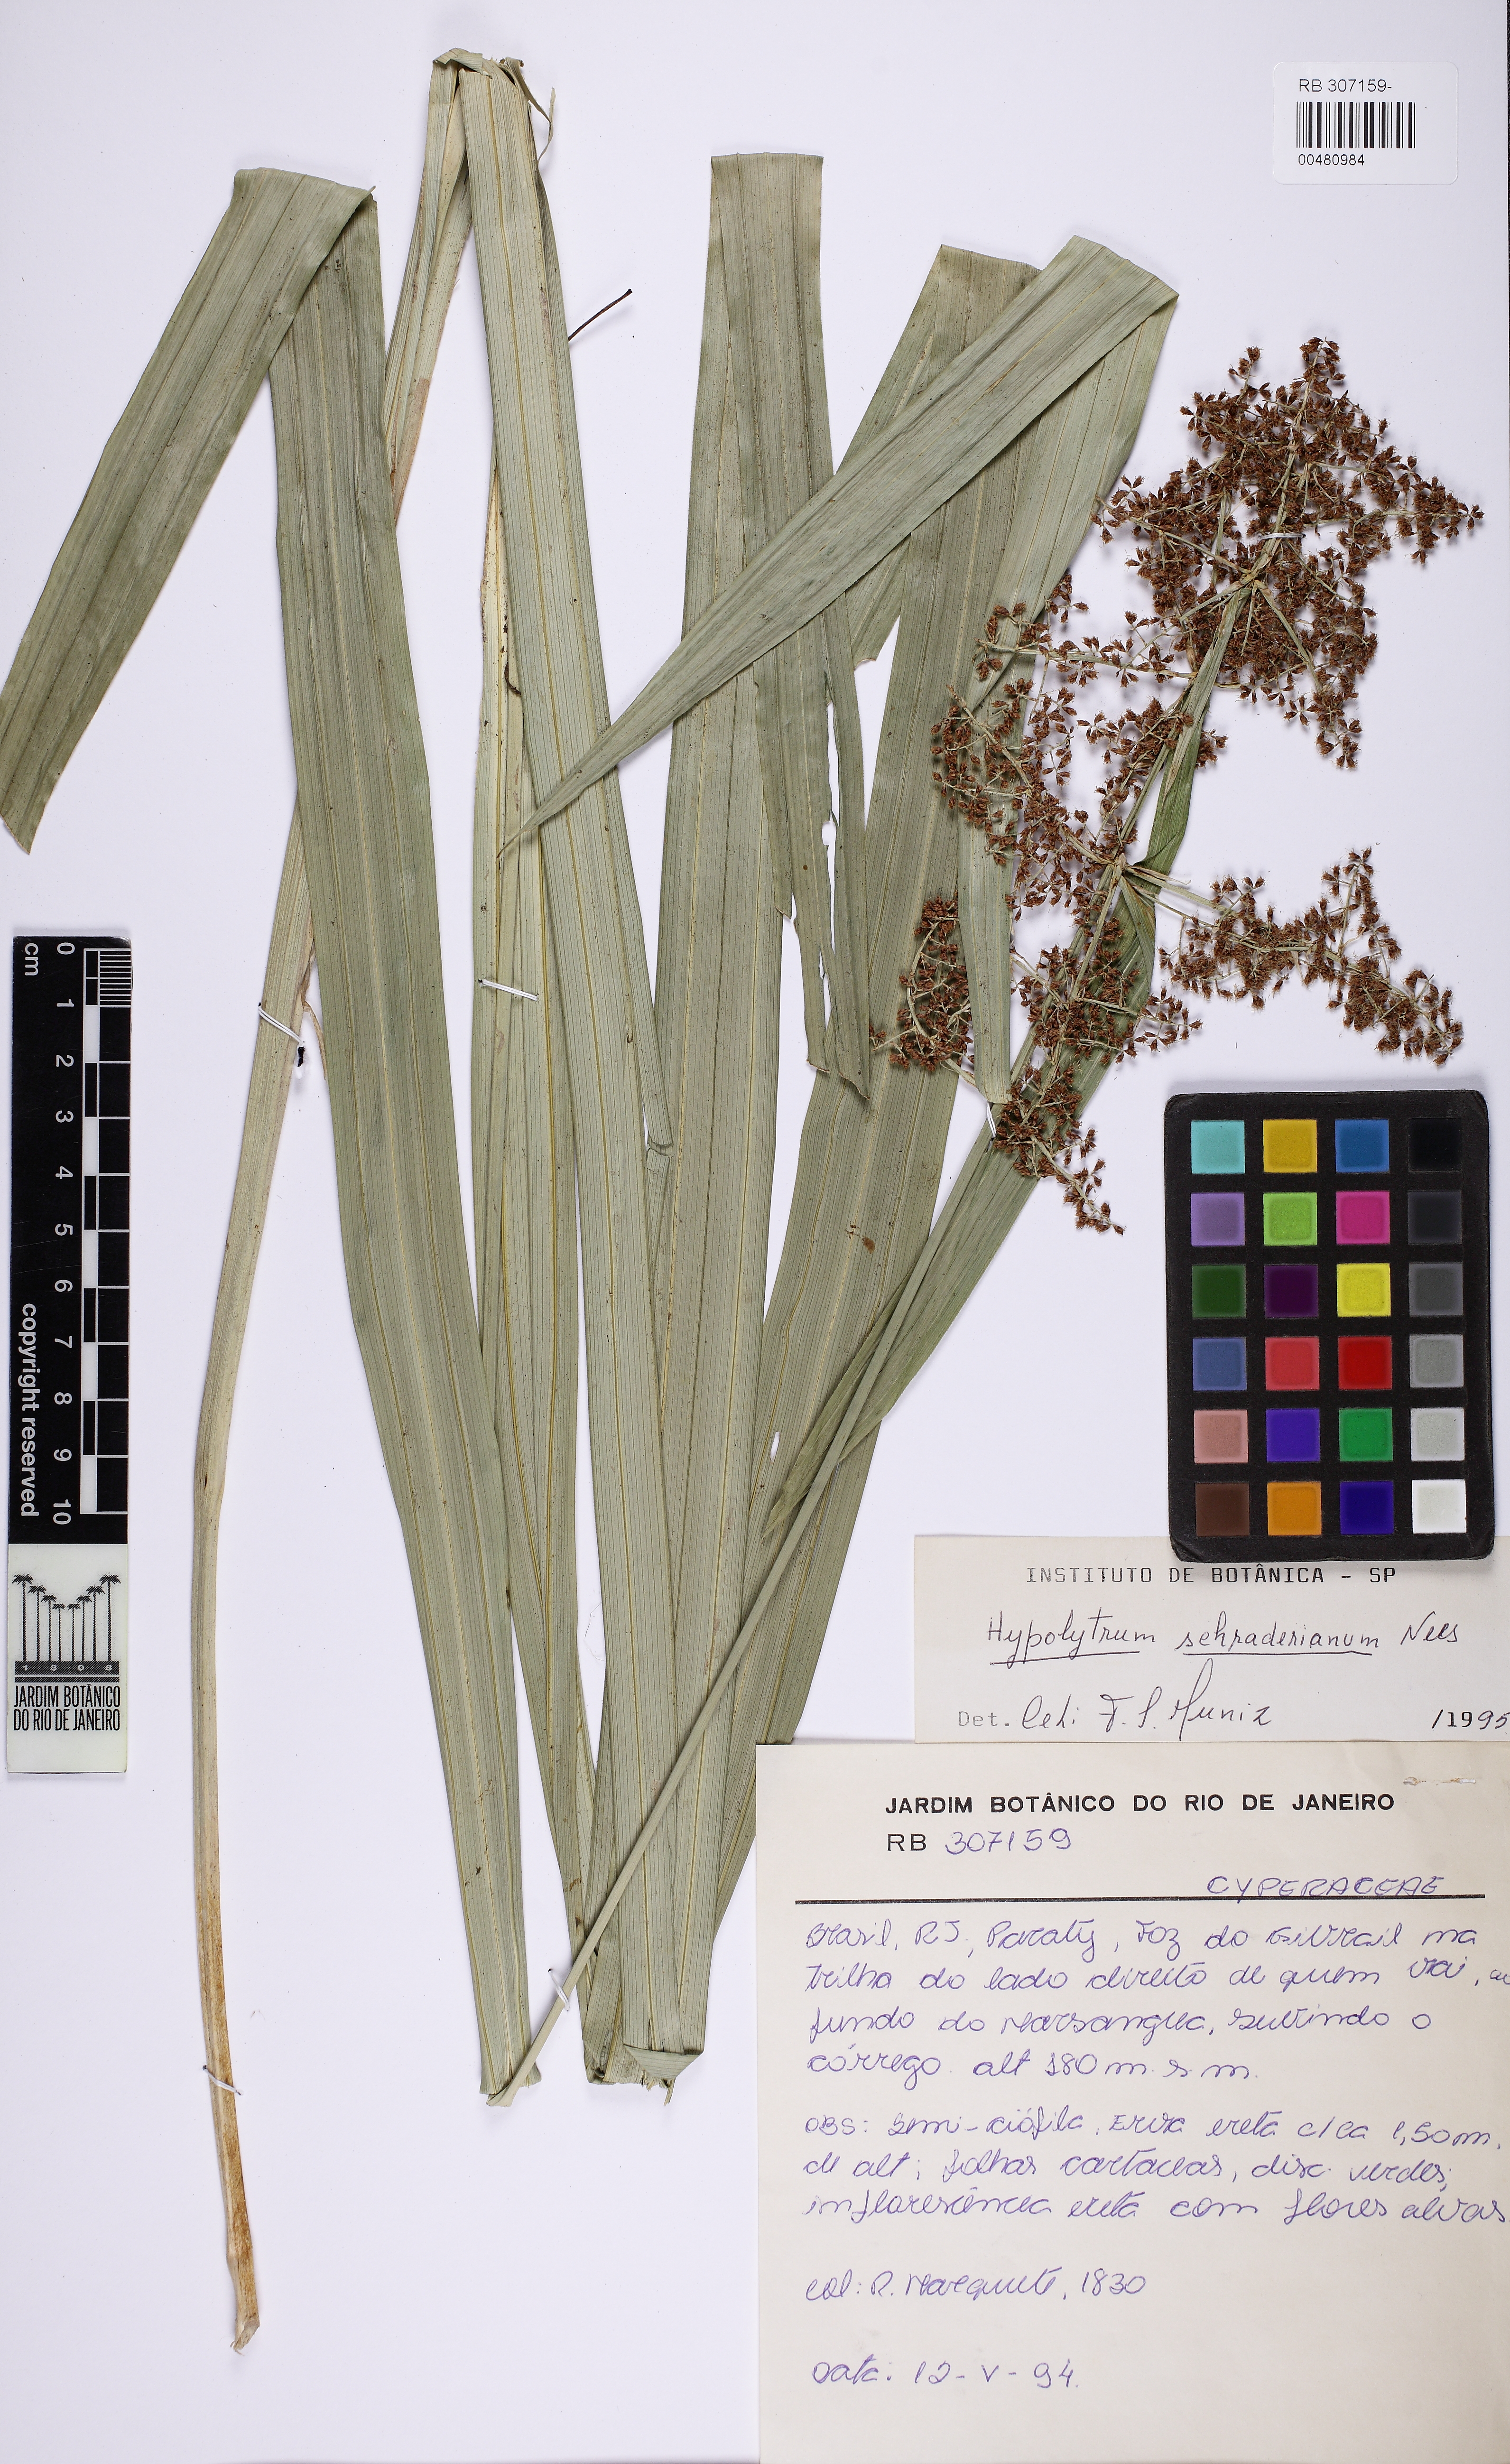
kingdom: Plantae
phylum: Tracheophyta
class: Liliopsida
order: Poales
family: Cyperaceae
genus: Hypolytrum
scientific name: Hypolytrum schraderianum
